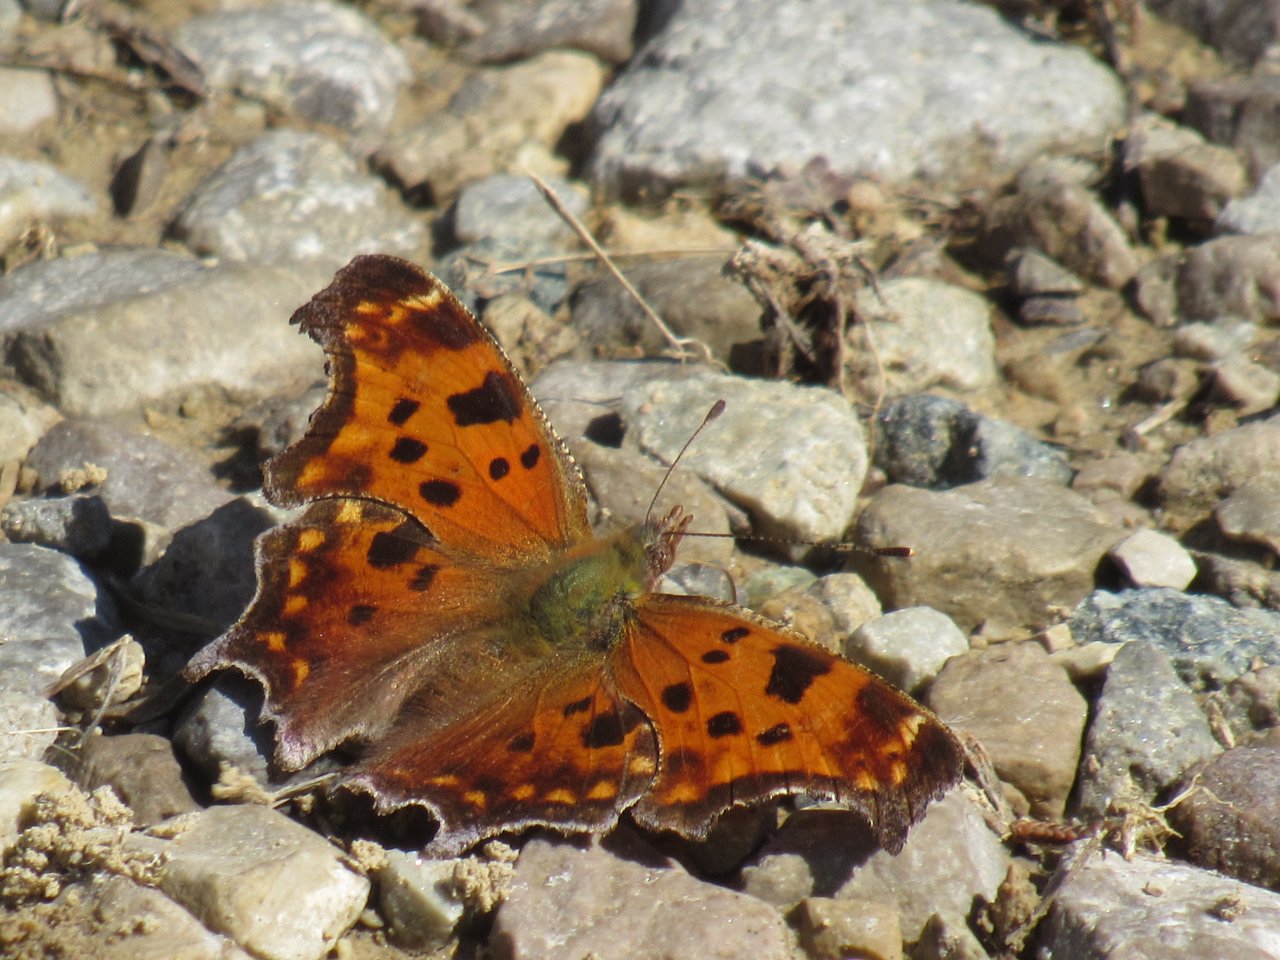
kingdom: Animalia
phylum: Arthropoda
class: Insecta
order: Lepidoptera
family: Nymphalidae
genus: Polygonia
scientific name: Polygonia comma
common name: Eastern Comma
